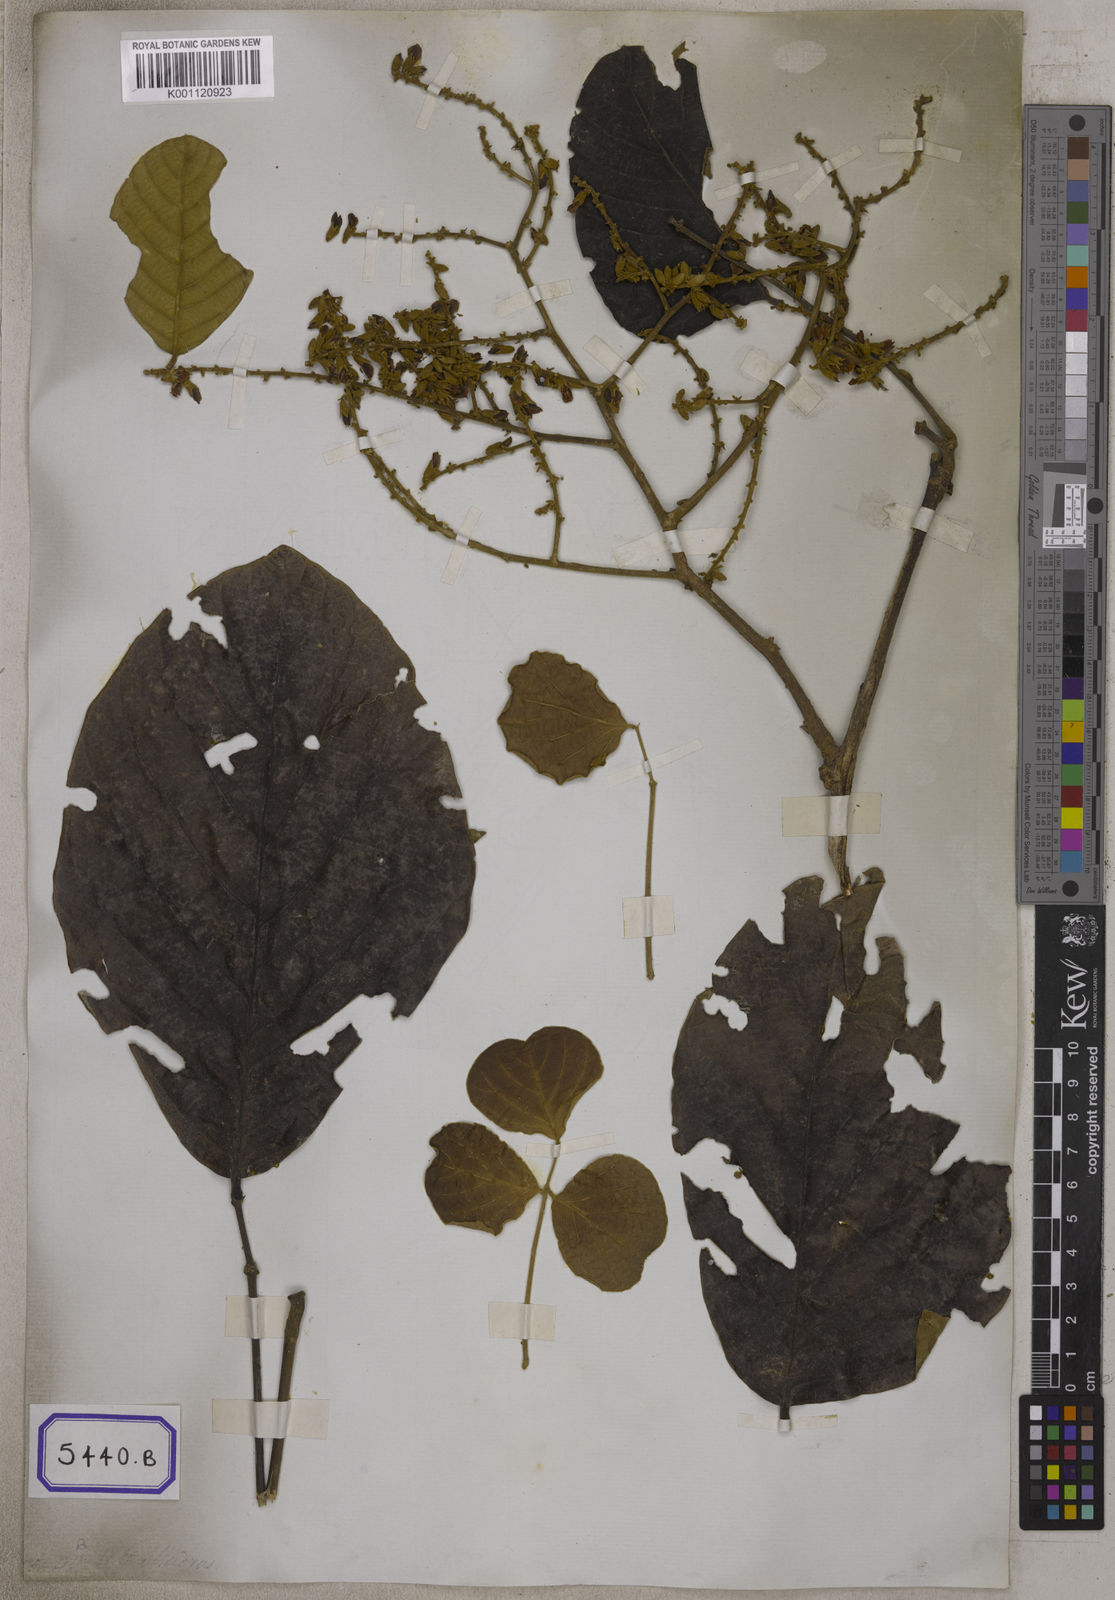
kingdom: Plantae
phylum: Tracheophyta
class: Magnoliopsida
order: Fabales
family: Fabaceae
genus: Butea
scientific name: Butea
